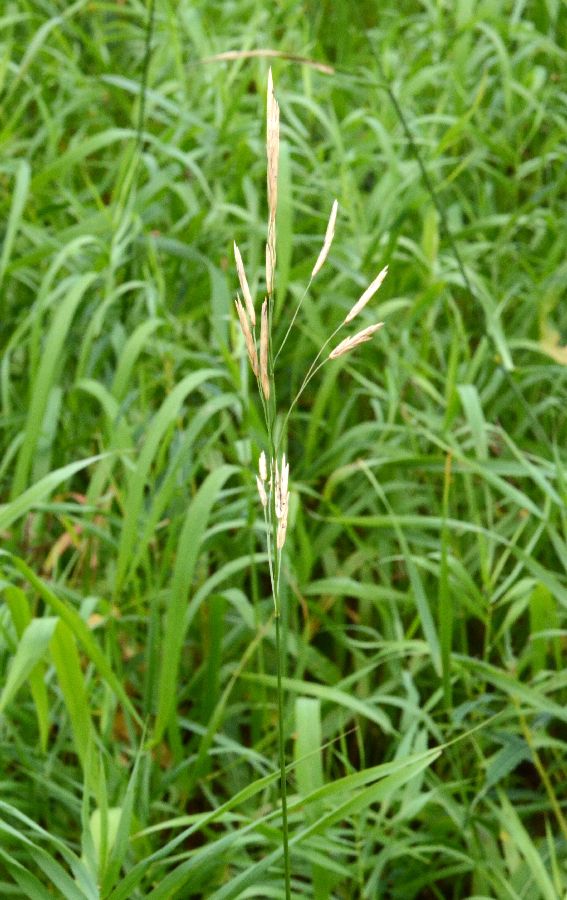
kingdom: Plantae
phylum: Tracheophyta
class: Liliopsida
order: Poales
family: Poaceae
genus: Bromus
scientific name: Bromus inermis
